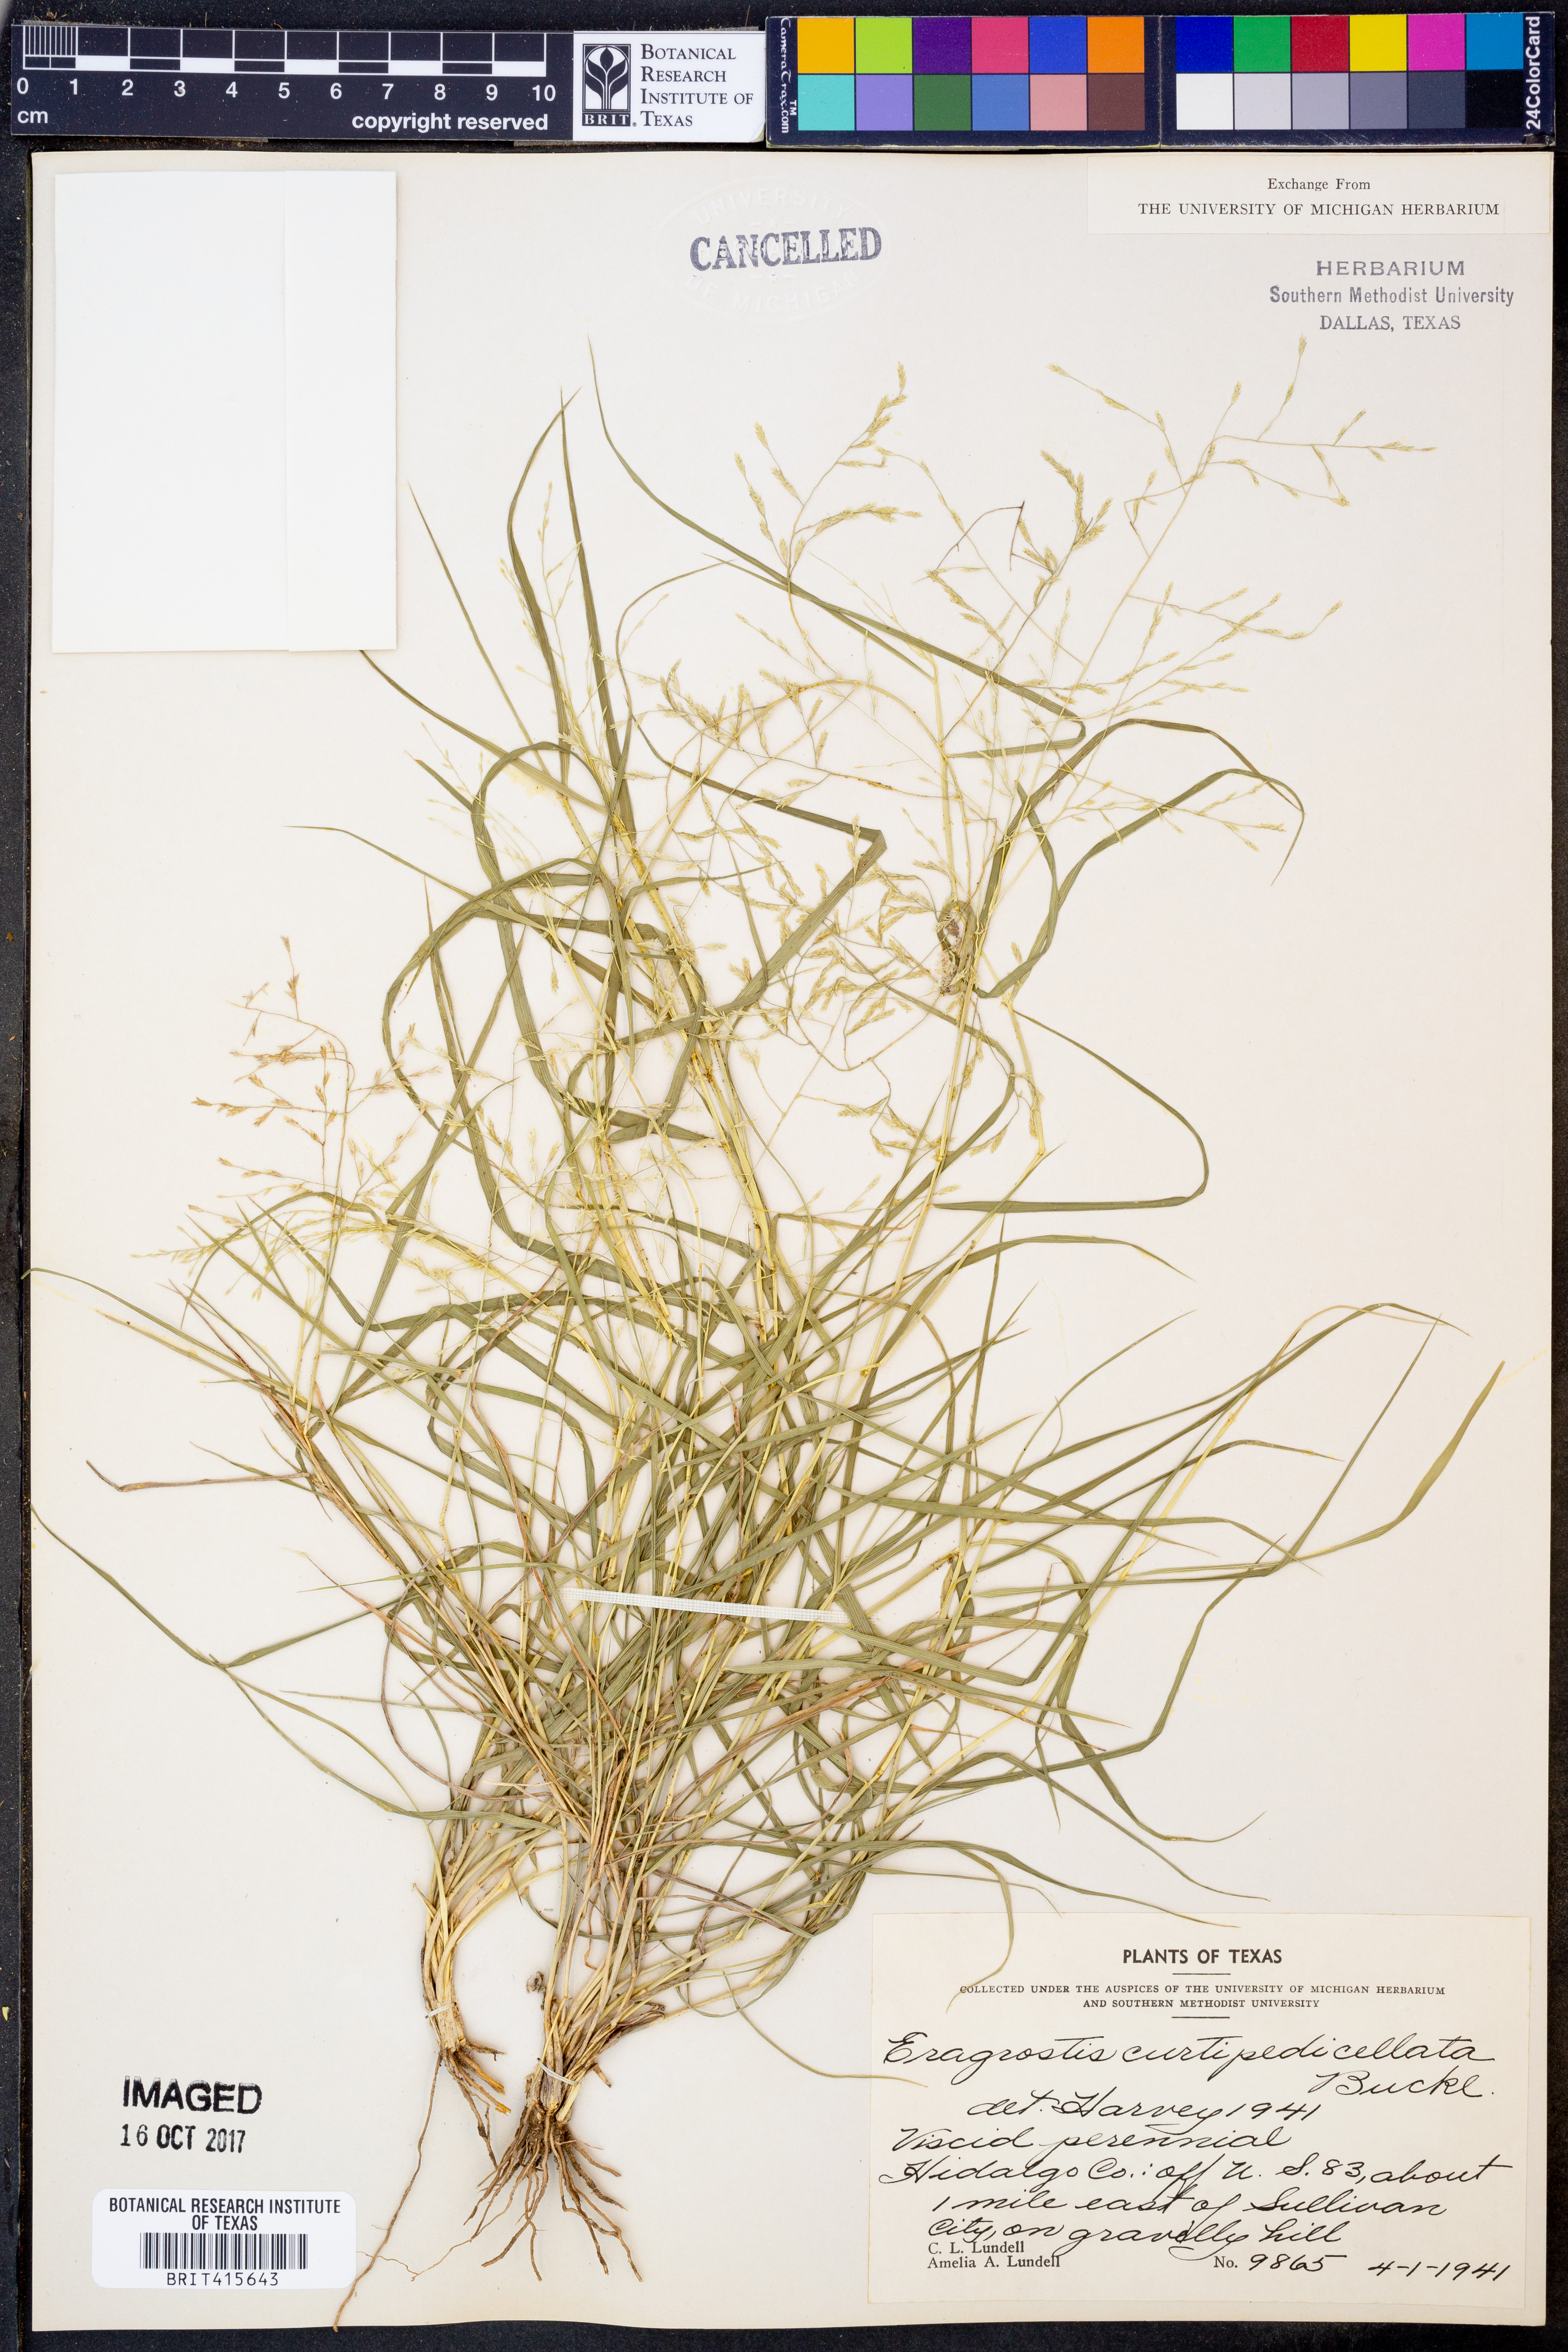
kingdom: Plantae
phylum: Tracheophyta
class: Liliopsida
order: Poales
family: Poaceae
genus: Eragrostis
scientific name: Eragrostis curtipedicellata
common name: Gummy love grass
